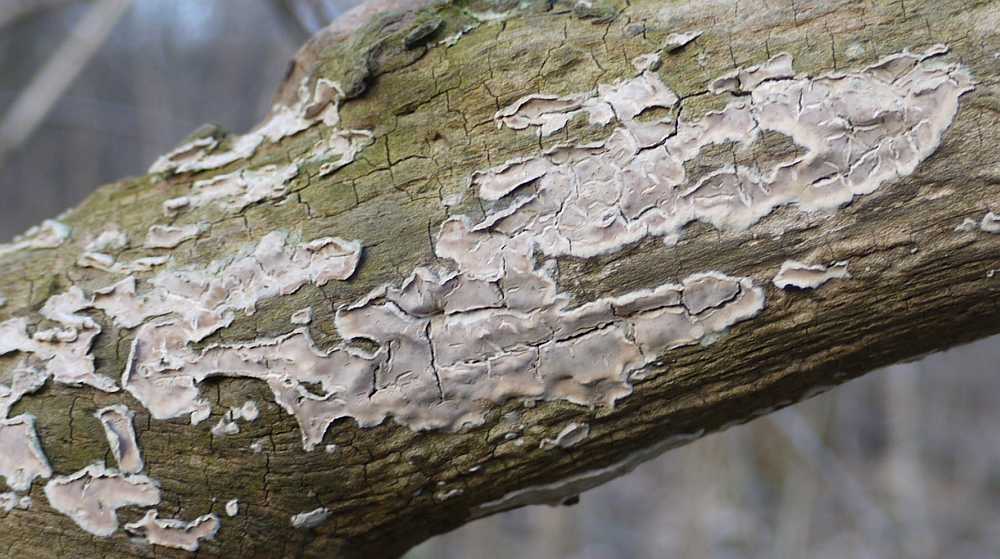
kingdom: Fungi
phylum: Basidiomycota
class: Agaricomycetes
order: Agaricales
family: Physalacriaceae
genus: Cylindrobasidium
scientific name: Cylindrobasidium evolvens
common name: sprækkehinde
